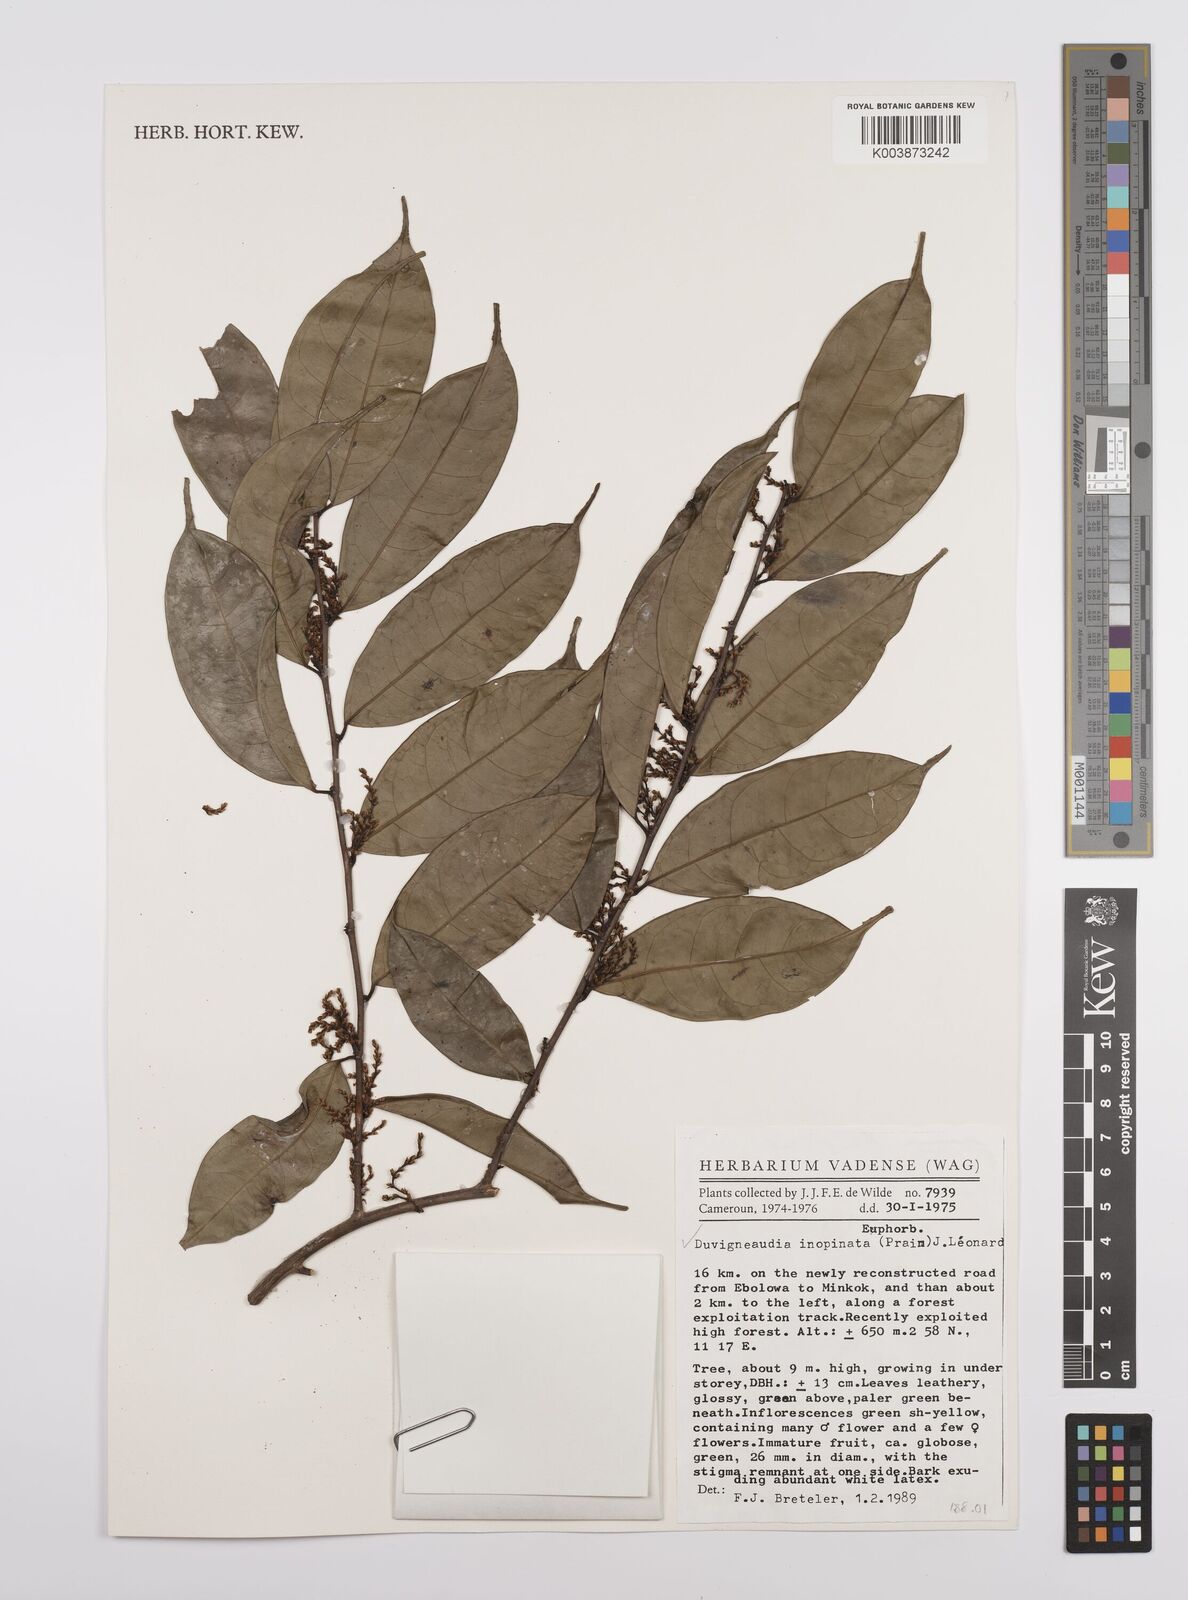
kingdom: Plantae
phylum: Tracheophyta
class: Magnoliopsida
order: Malpighiales
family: Euphorbiaceae
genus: Gymnanthes
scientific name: Gymnanthes inopinata
